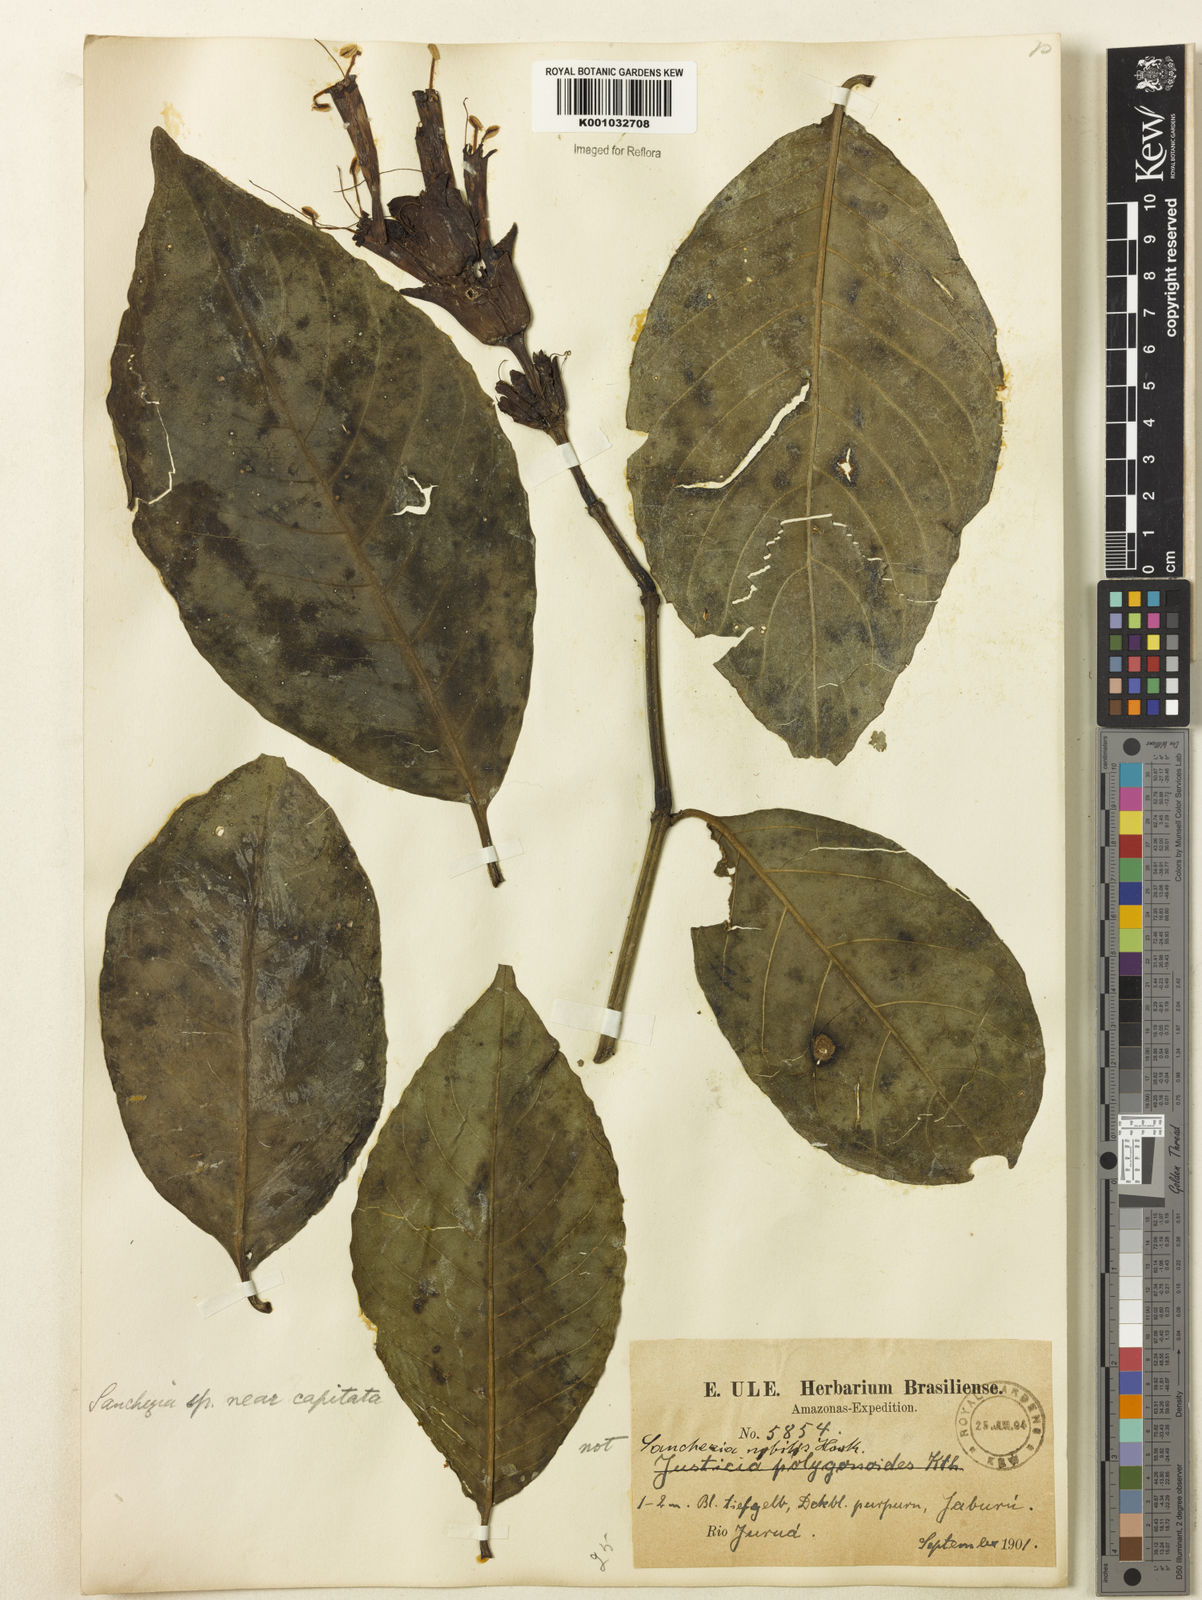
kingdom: Plantae
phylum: Tracheophyta
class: Magnoliopsida
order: Lamiales
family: Acanthaceae
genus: Sanchezia
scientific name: Sanchezia
